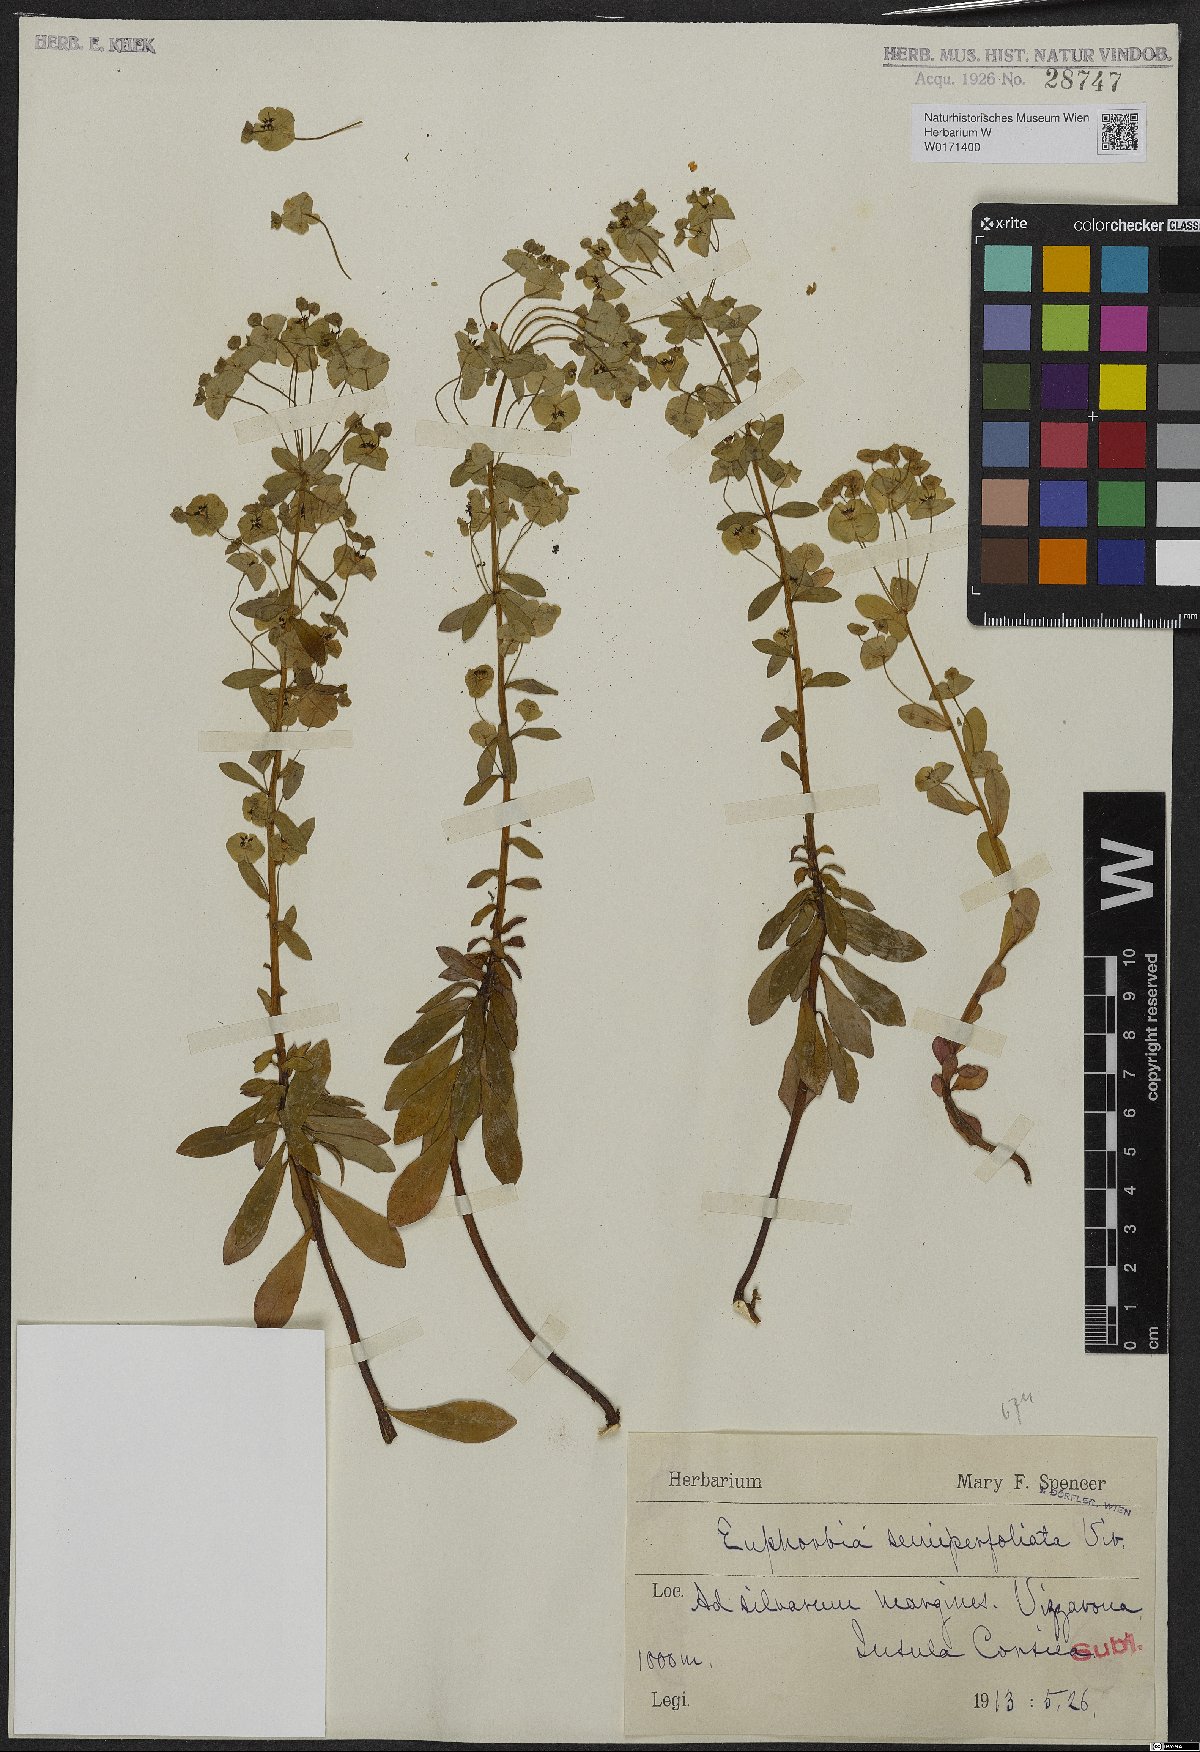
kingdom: Plantae
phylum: Tracheophyta
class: Magnoliopsida
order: Malpighiales
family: Euphorbiaceae
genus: Euphorbia
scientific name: Euphorbia semiperfoliata
